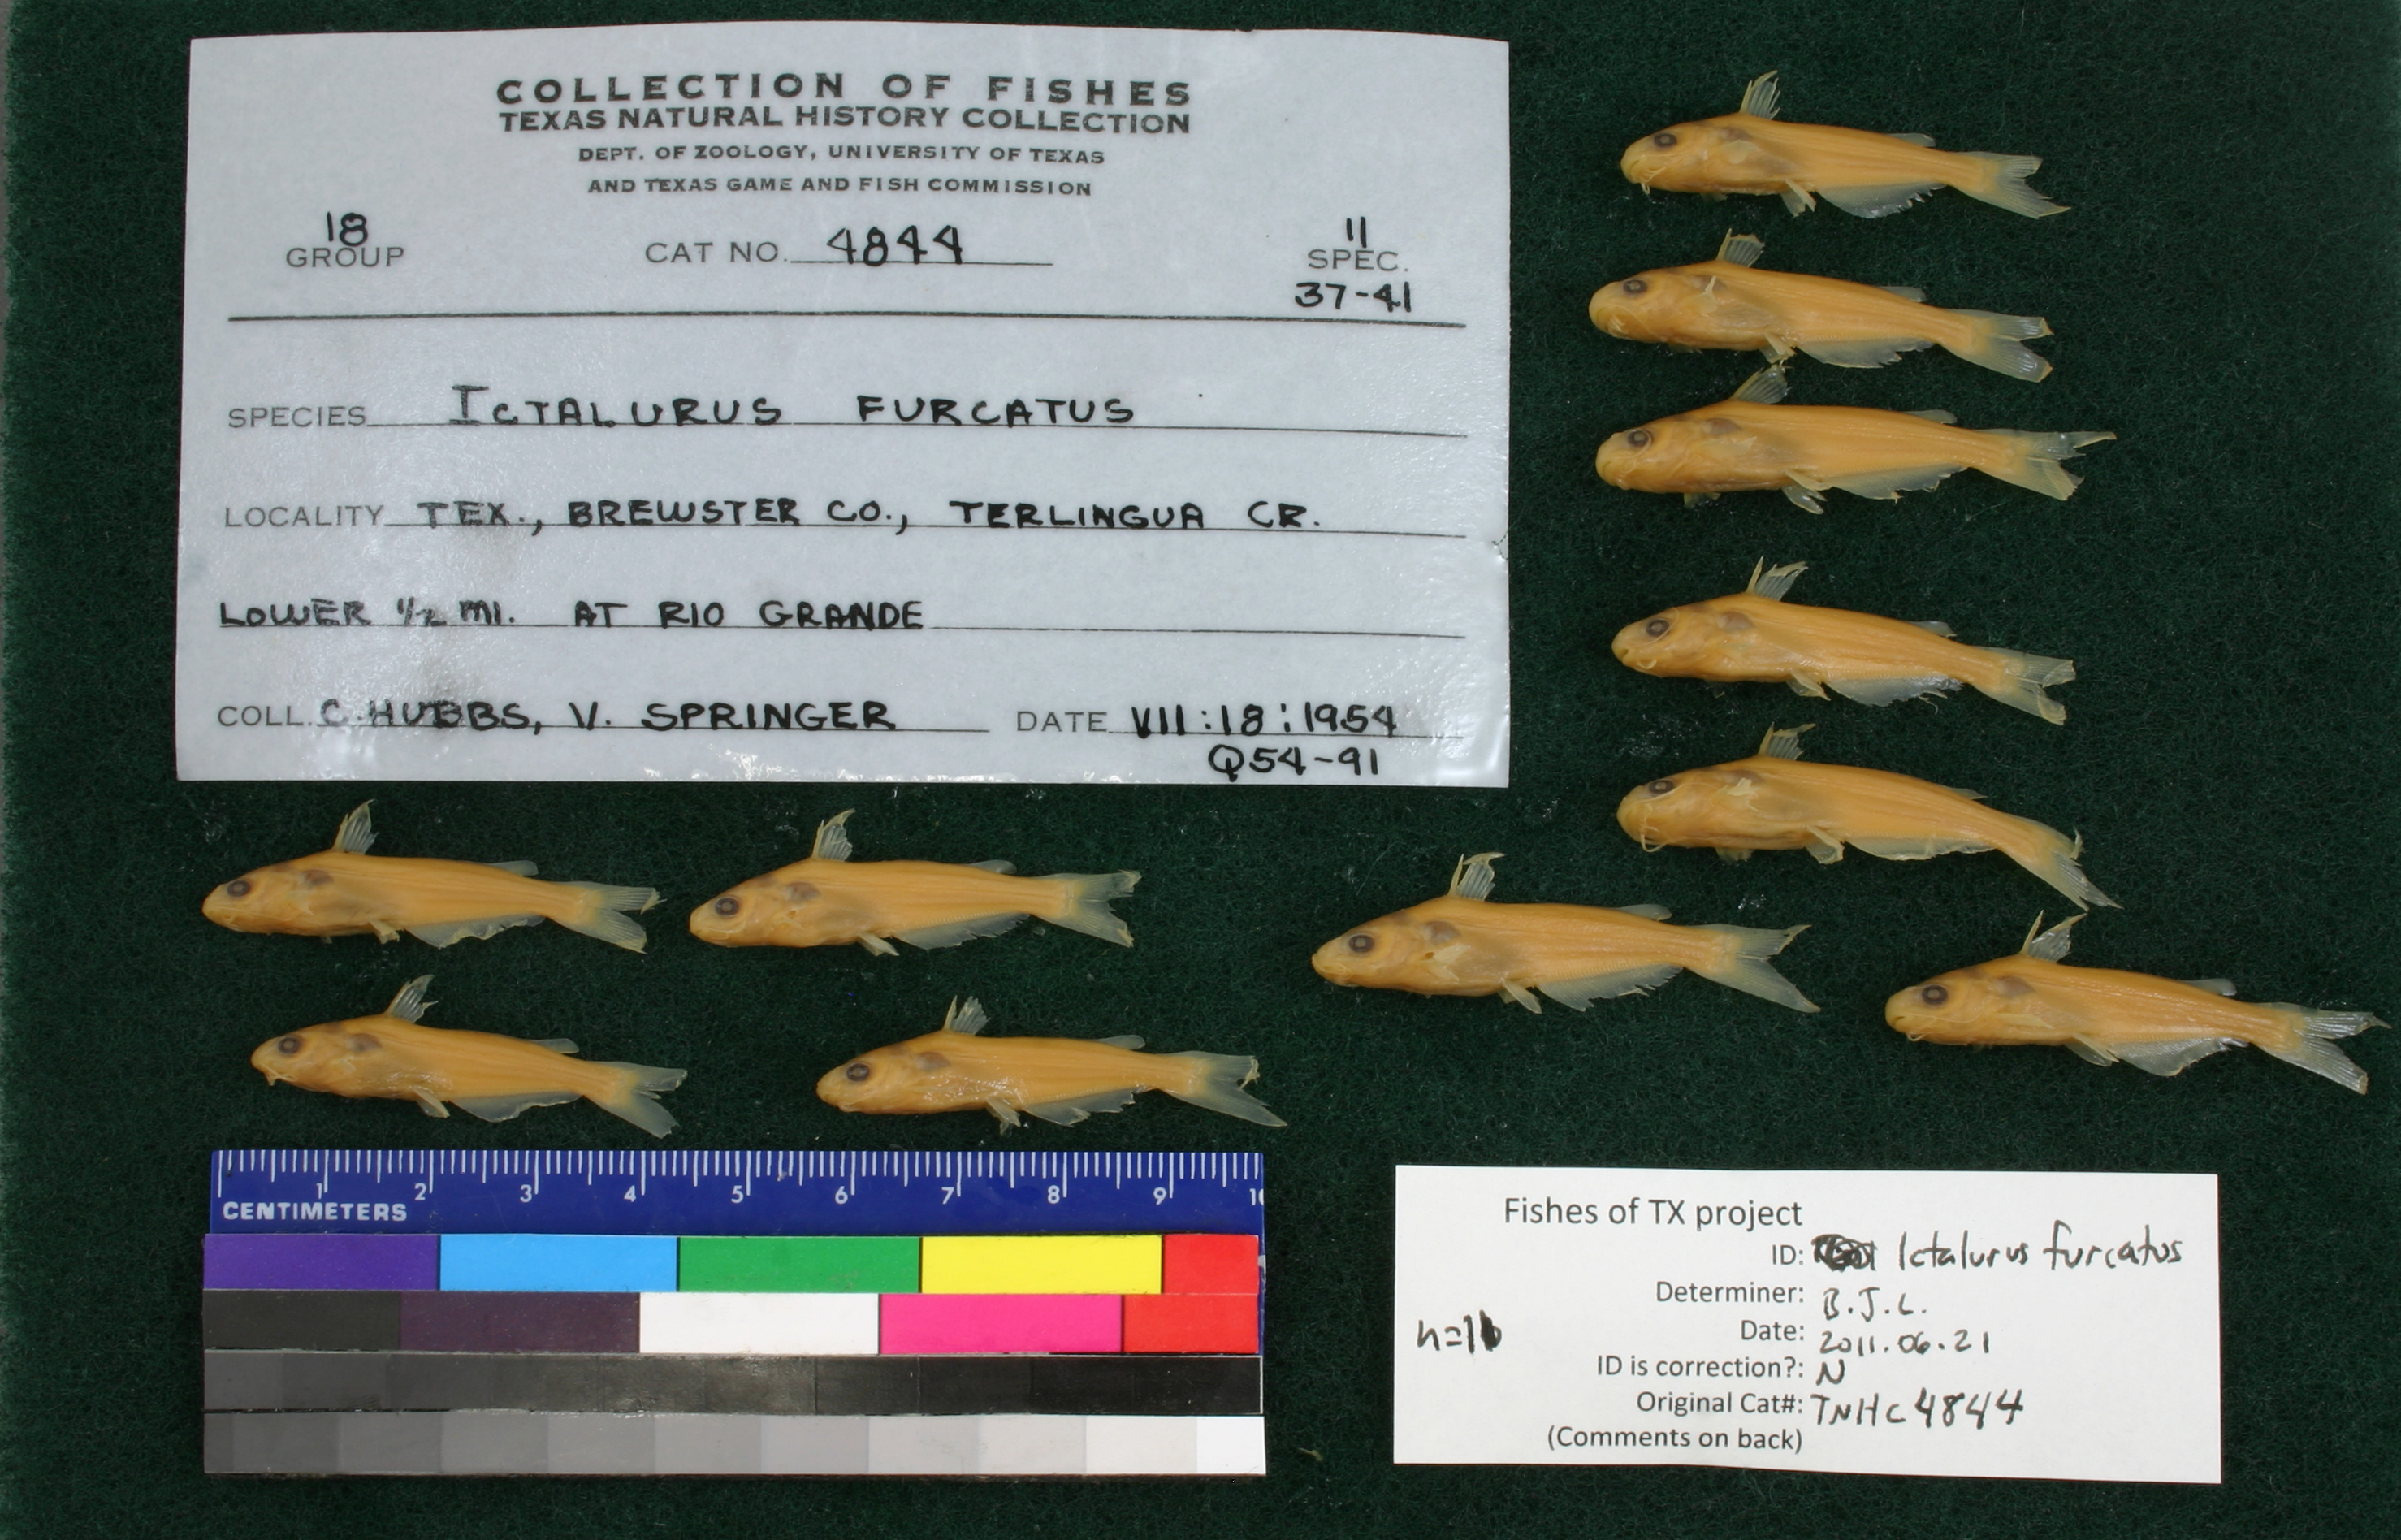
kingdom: Animalia
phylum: Chordata
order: Siluriformes
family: Ictaluridae
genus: Ictalurus
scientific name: Ictalurus furcatus
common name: Blue catfish
